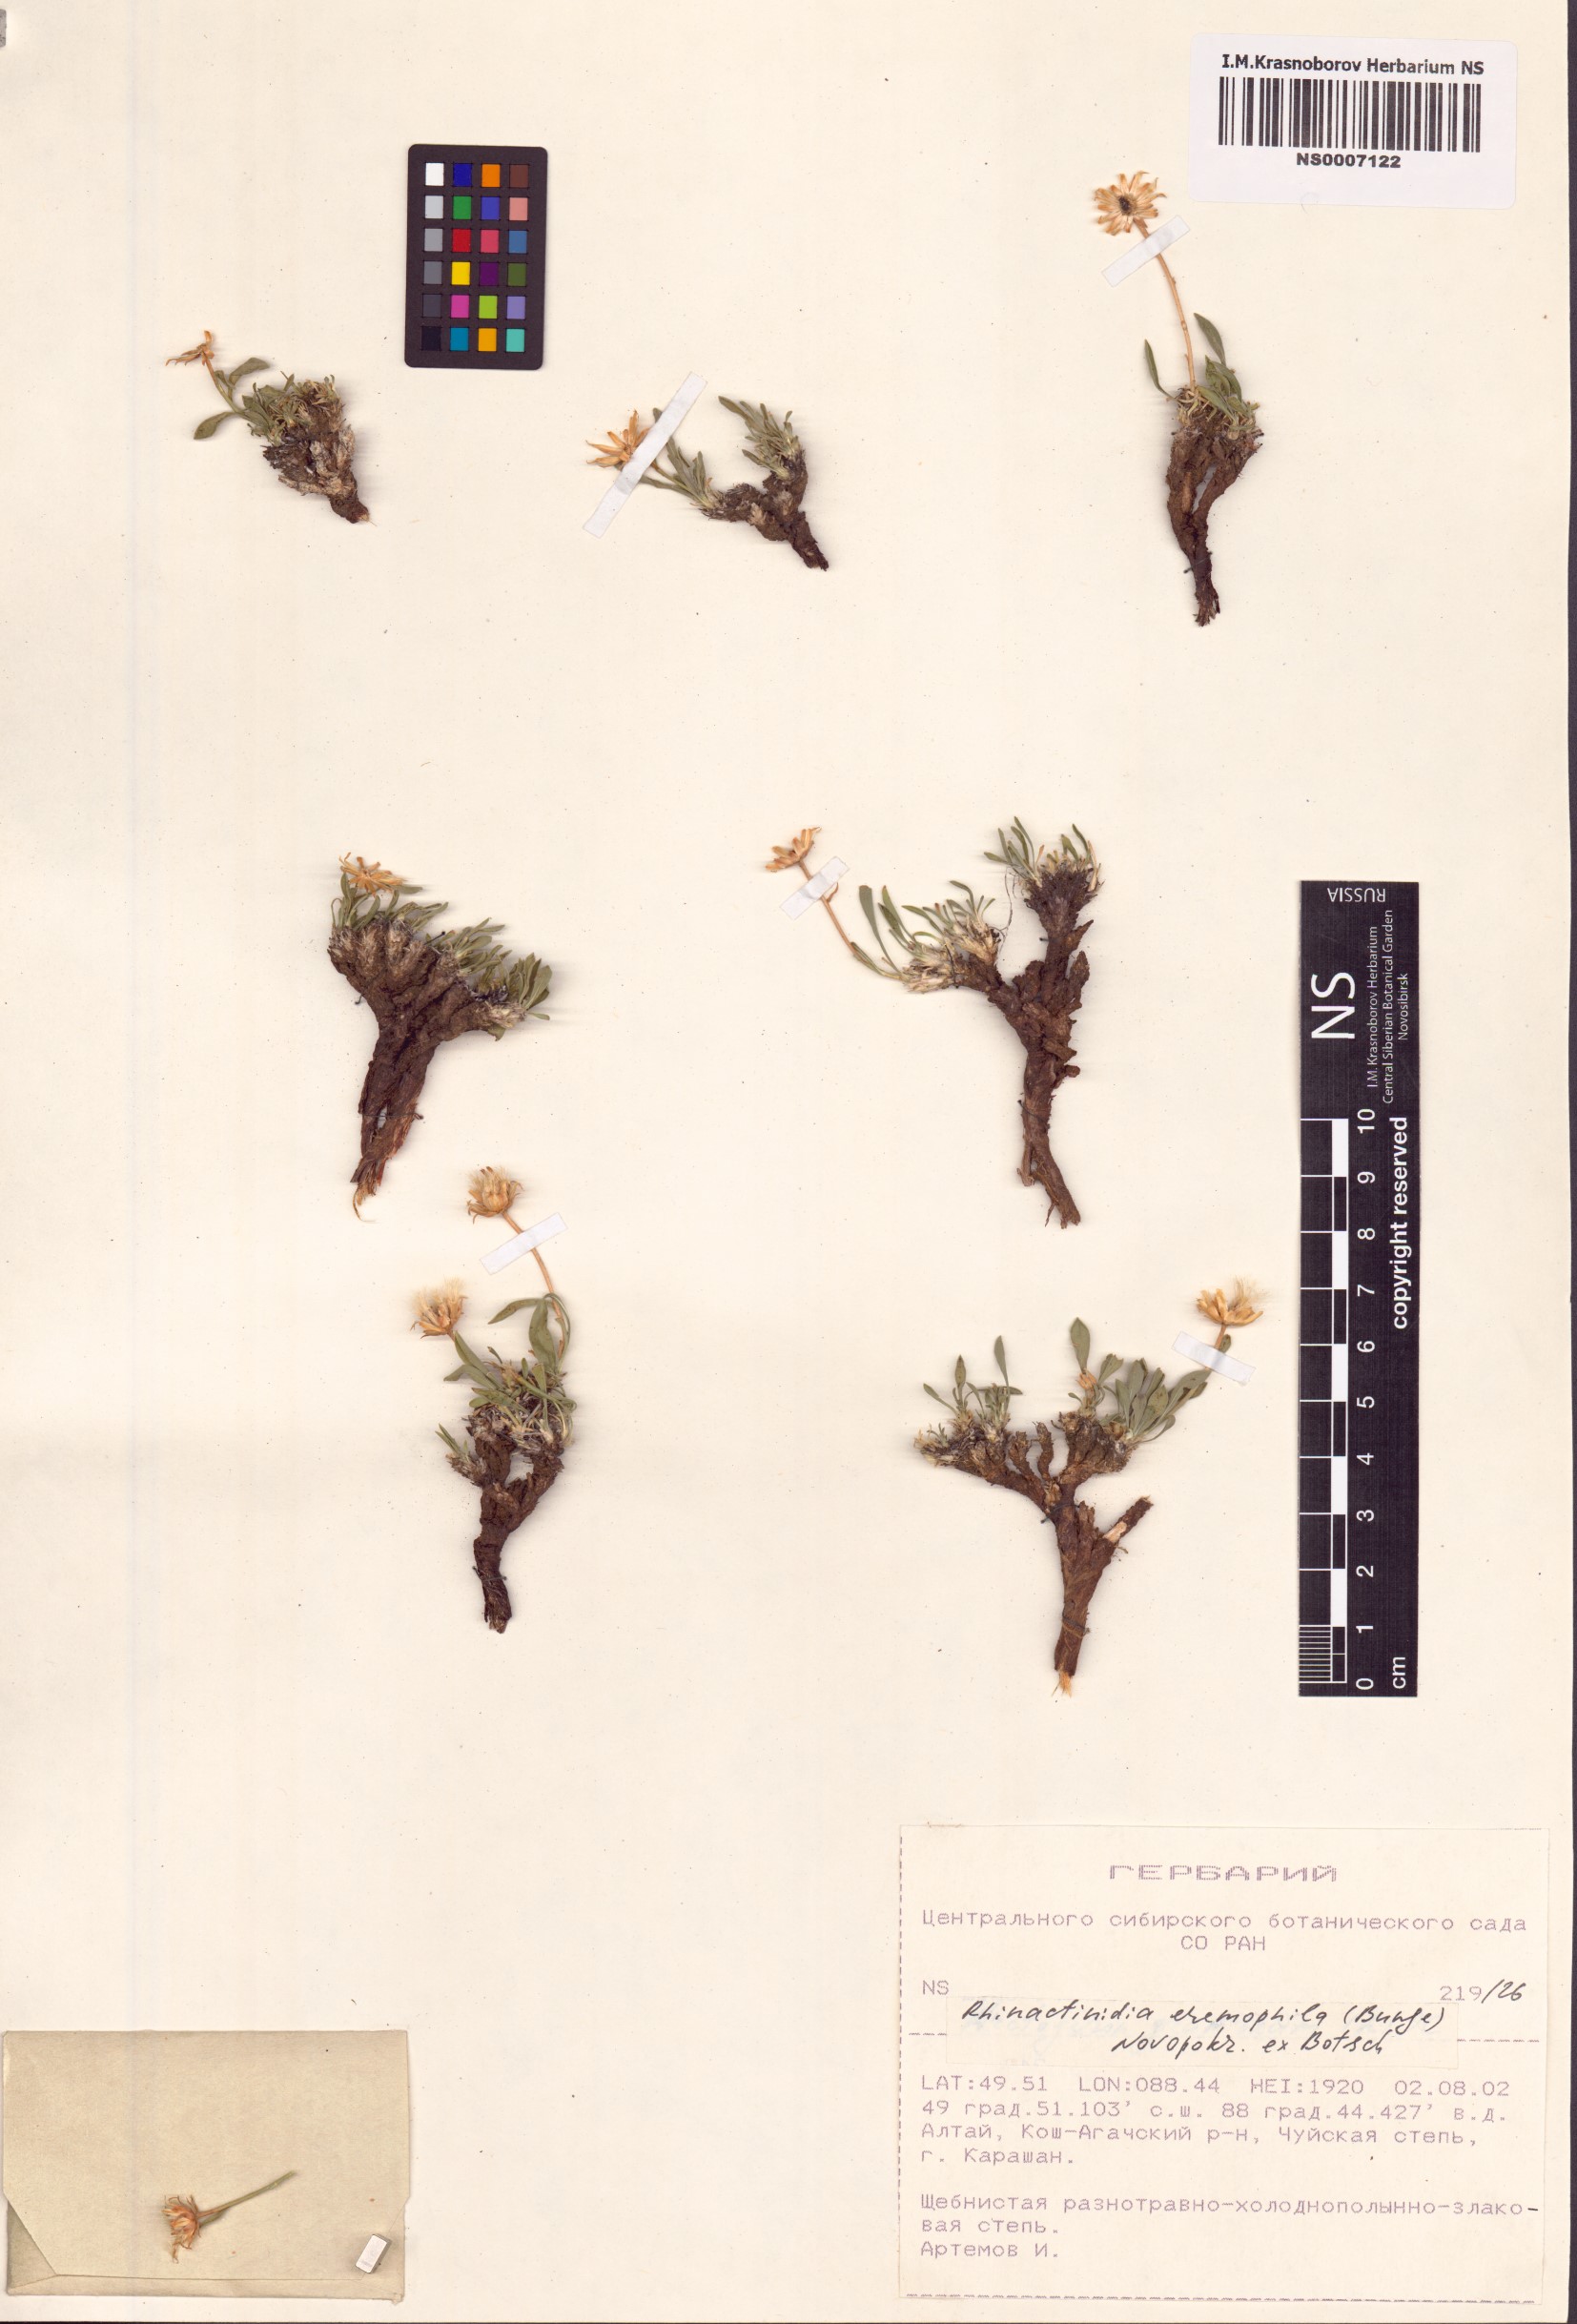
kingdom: Plantae
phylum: Tracheophyta
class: Magnoliopsida
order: Asterales
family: Asteraceae
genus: Rhinactinidia
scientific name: Rhinactinidia eremophila
